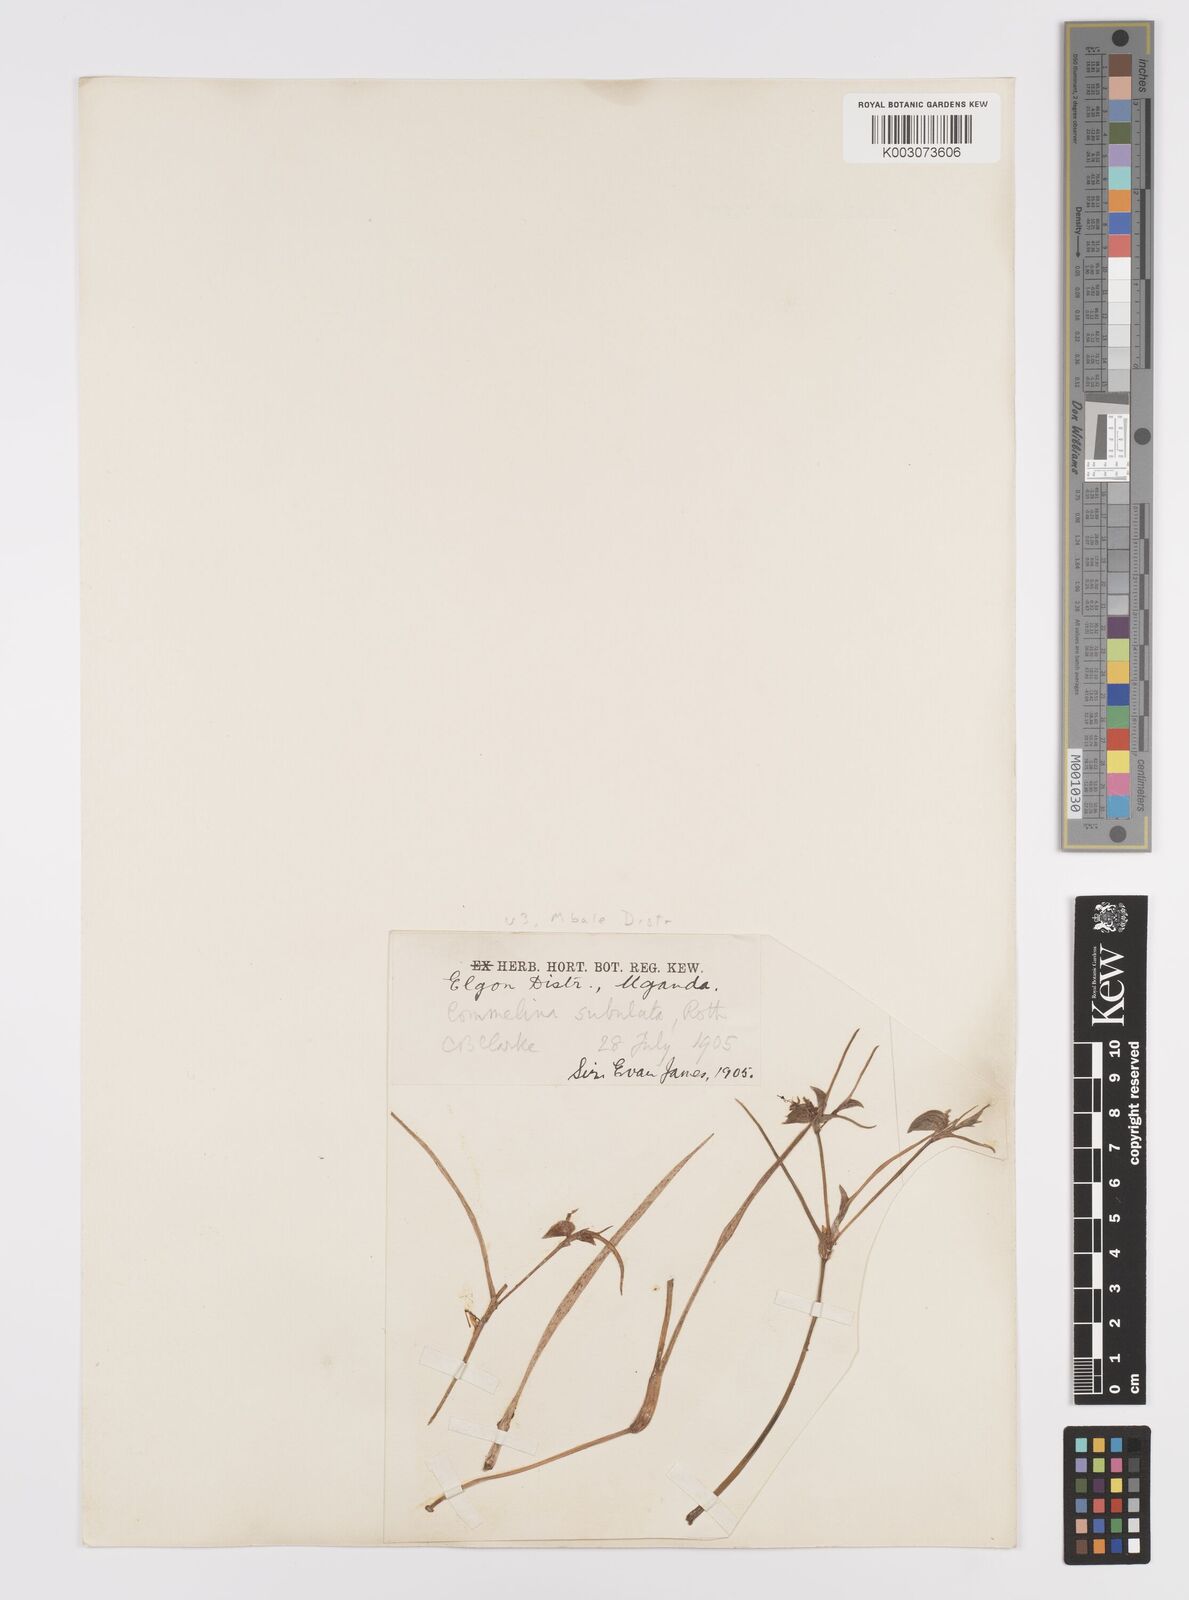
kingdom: Plantae
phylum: Tracheophyta
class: Liliopsida
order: Commelinales
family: Commelinaceae
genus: Commelina
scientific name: Commelina purpurea
